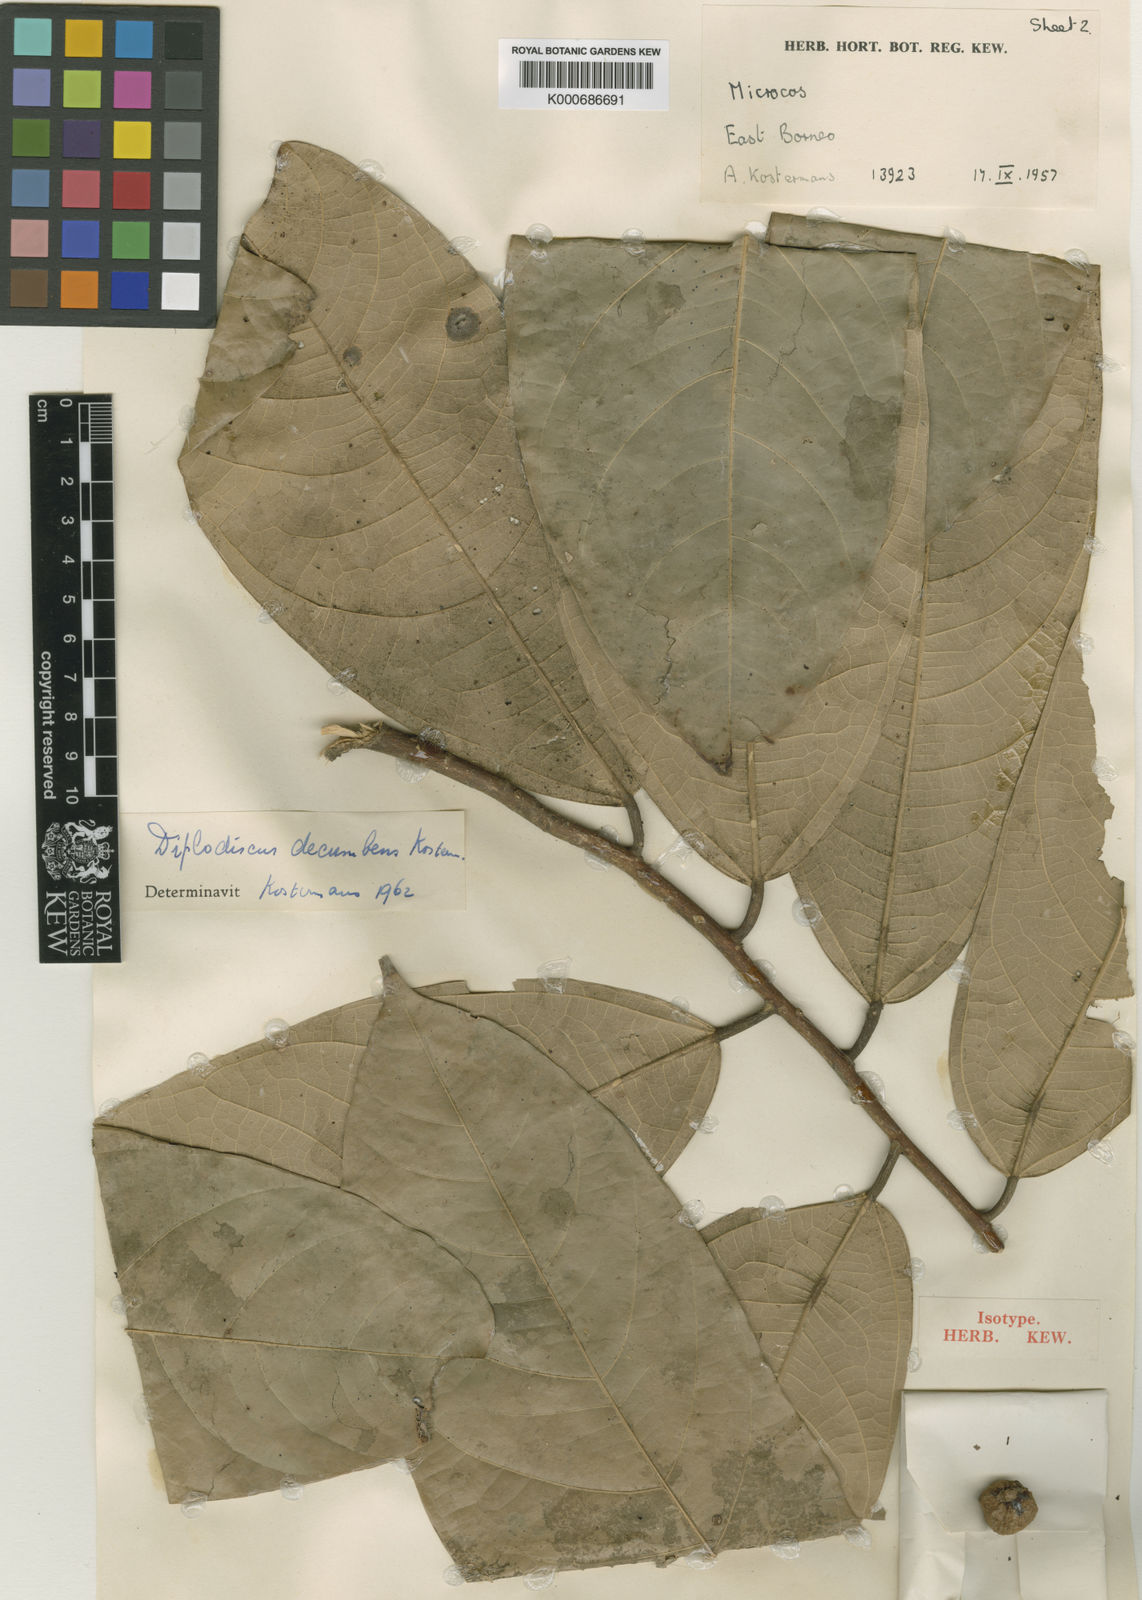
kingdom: Plantae
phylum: Tracheophyta
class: Magnoliopsida
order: Malvales
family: Malvaceae
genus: Diplodiscus
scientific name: Diplodiscus decumbens
